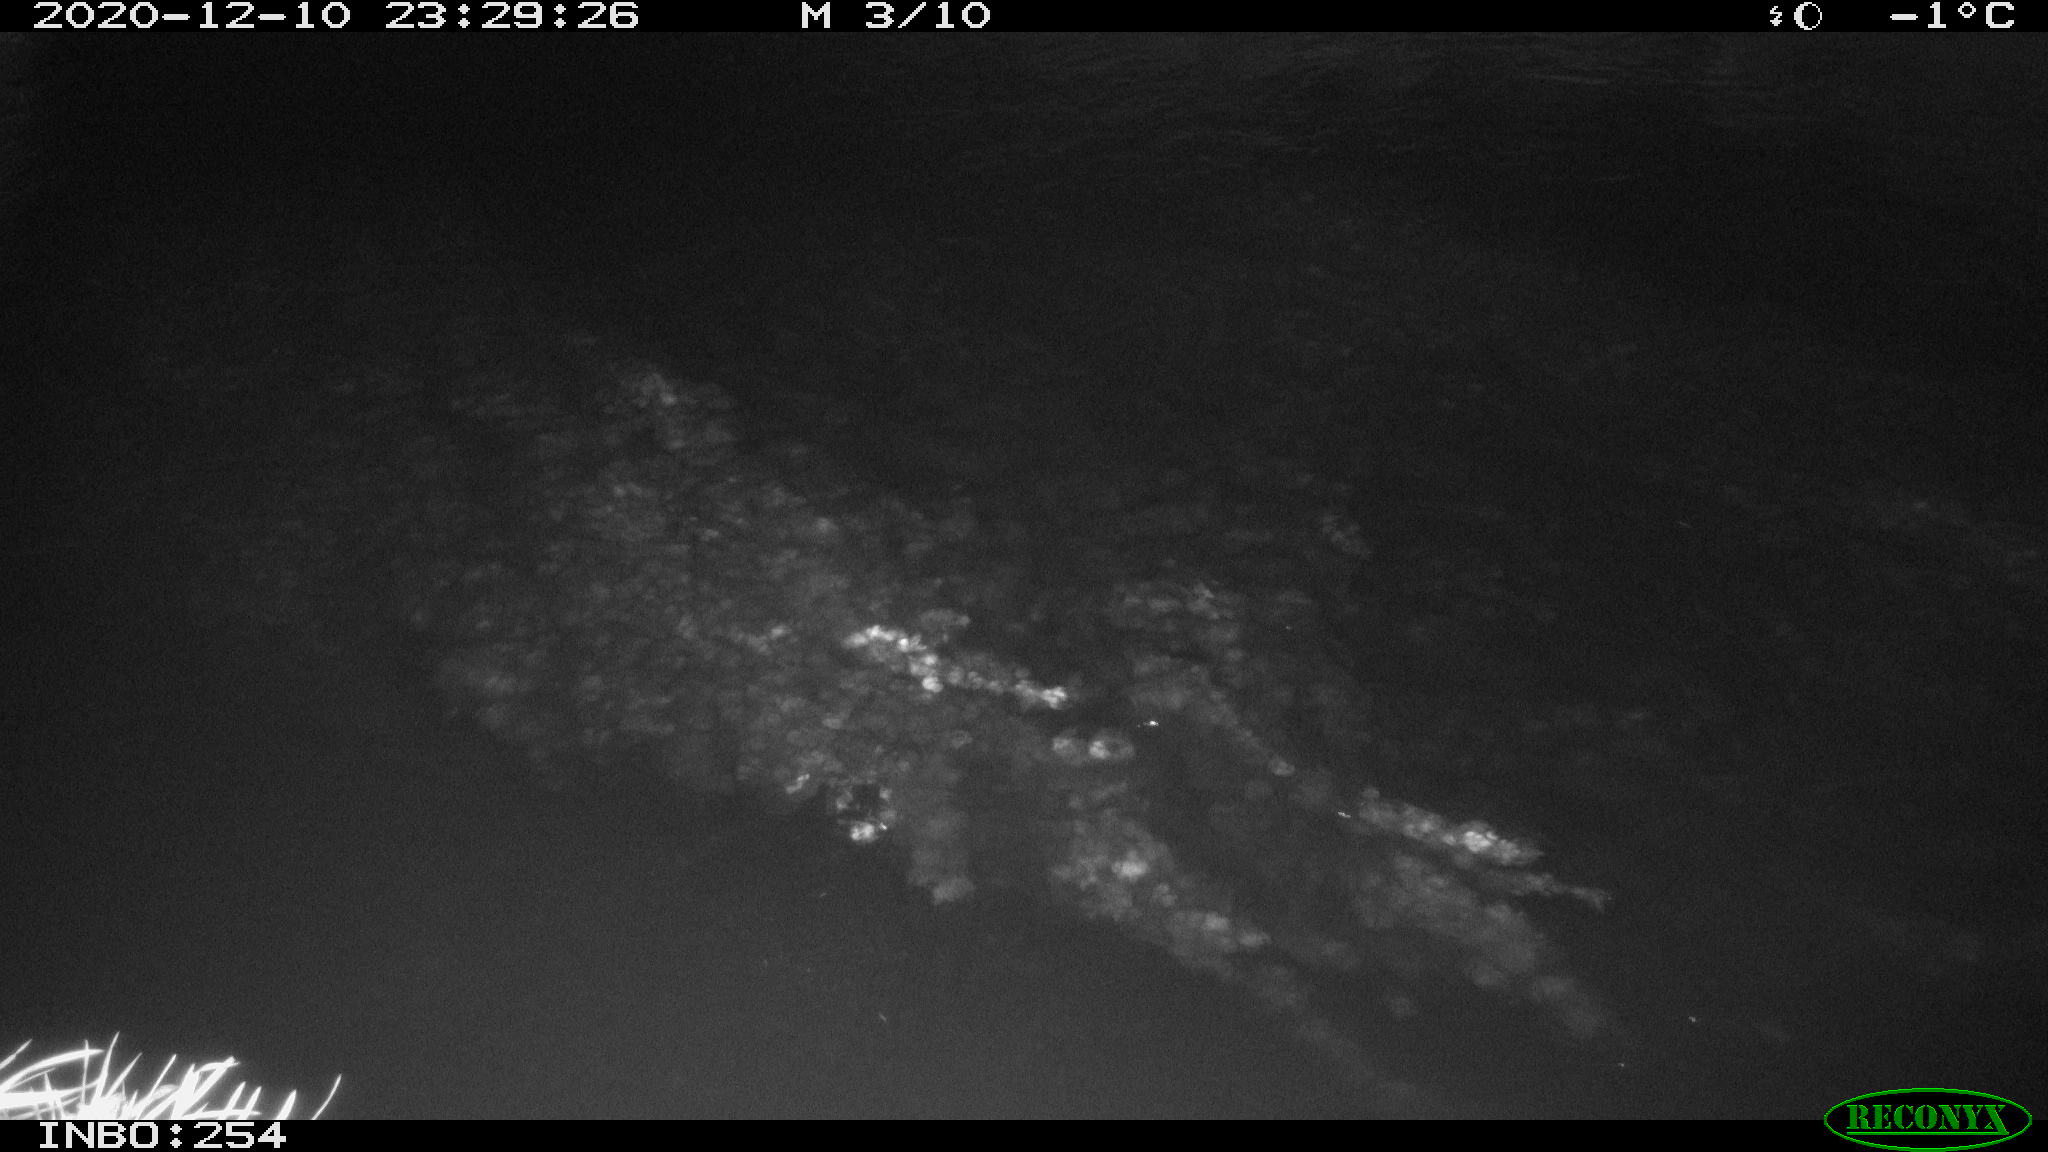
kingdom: Animalia
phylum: Chordata
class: Aves
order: Anseriformes
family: Anatidae
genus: Anas
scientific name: Anas platyrhynchos
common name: Mallard
